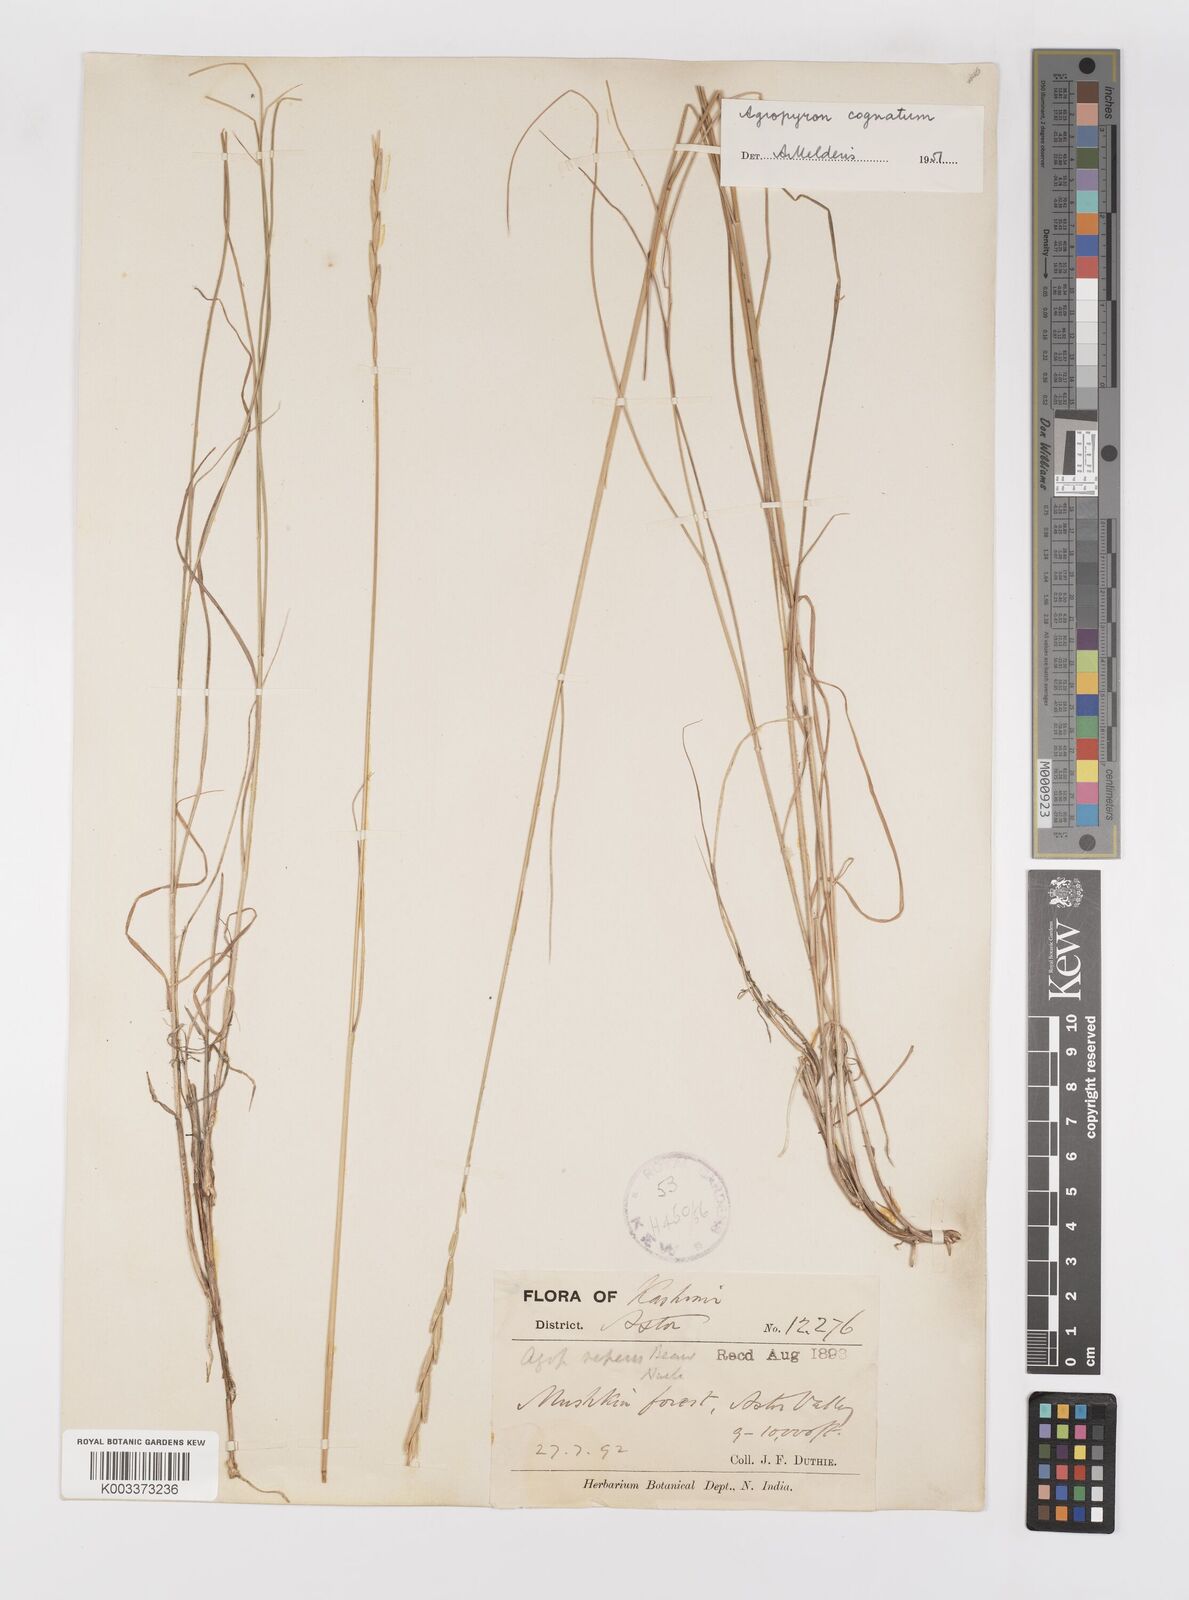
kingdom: Plantae
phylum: Tracheophyta
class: Liliopsida
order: Poales
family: Poaceae
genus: Pseudoroegneria
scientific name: Pseudoroegneria cognata
